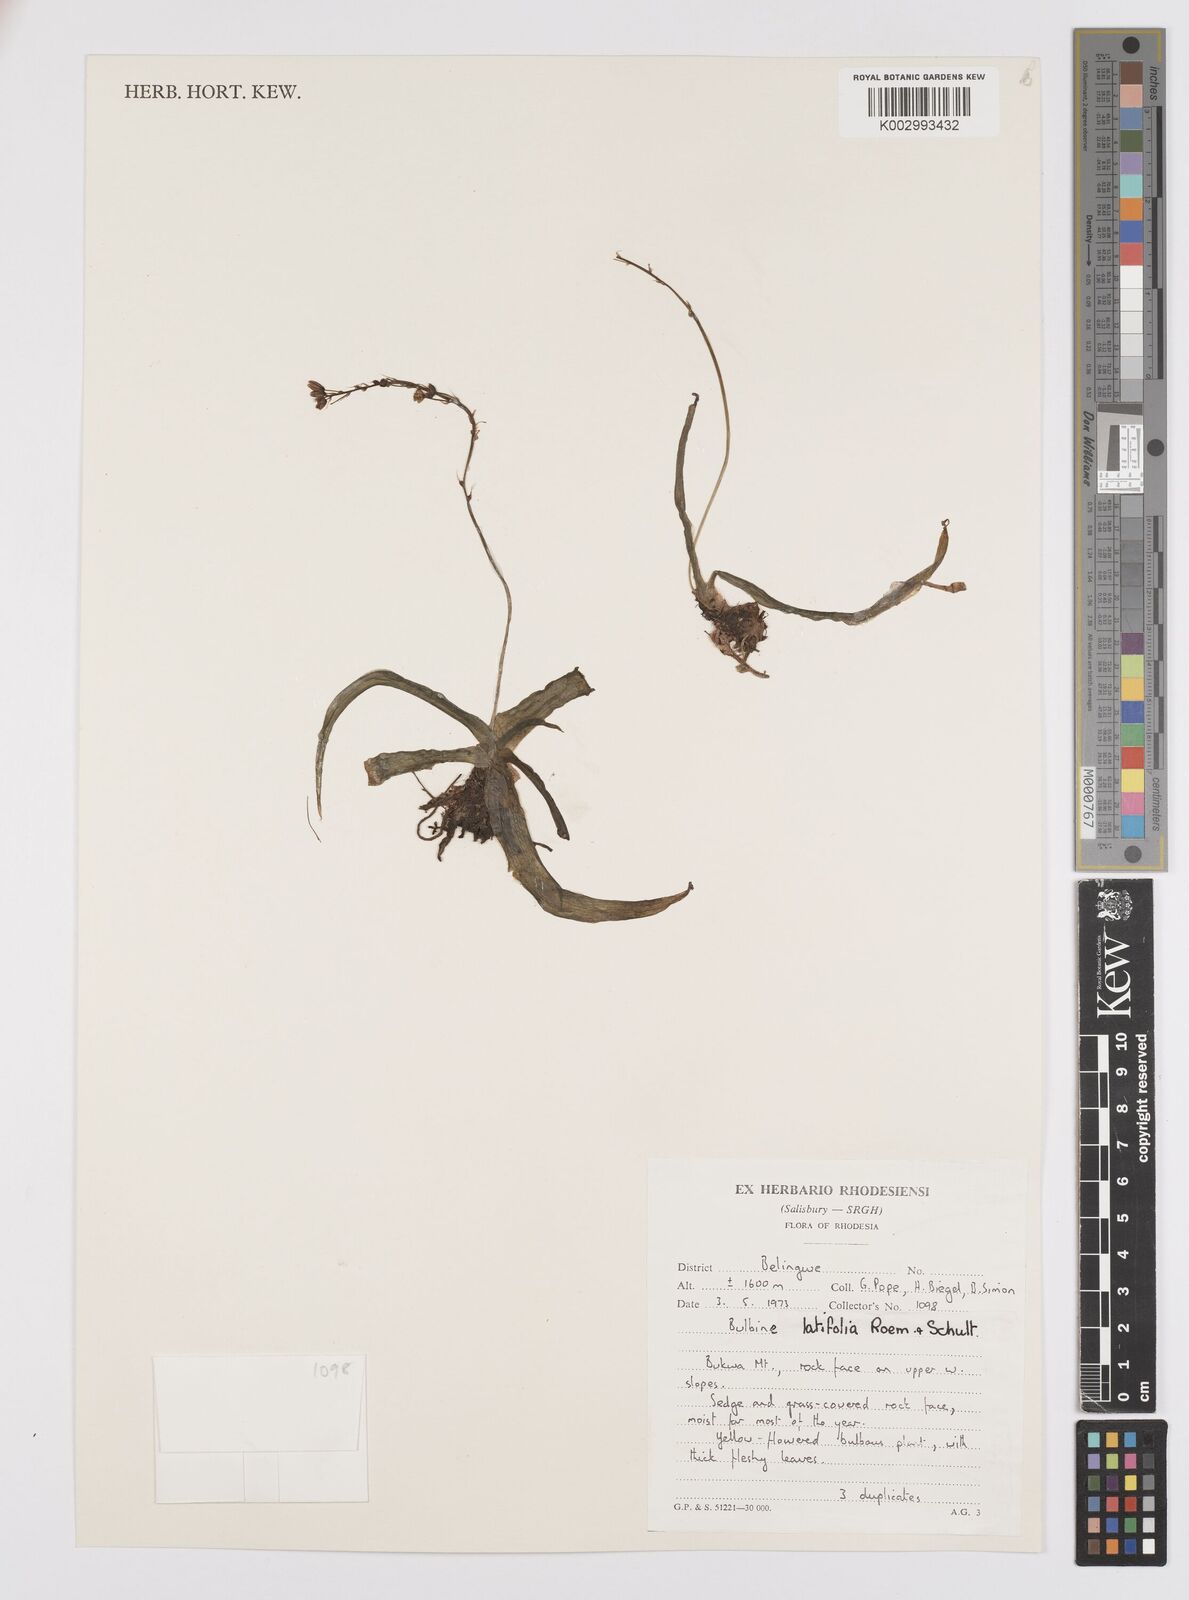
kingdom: Plantae
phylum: Tracheophyta
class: Liliopsida
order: Asparagales
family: Asphodelaceae
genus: Bulbine
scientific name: Bulbine
